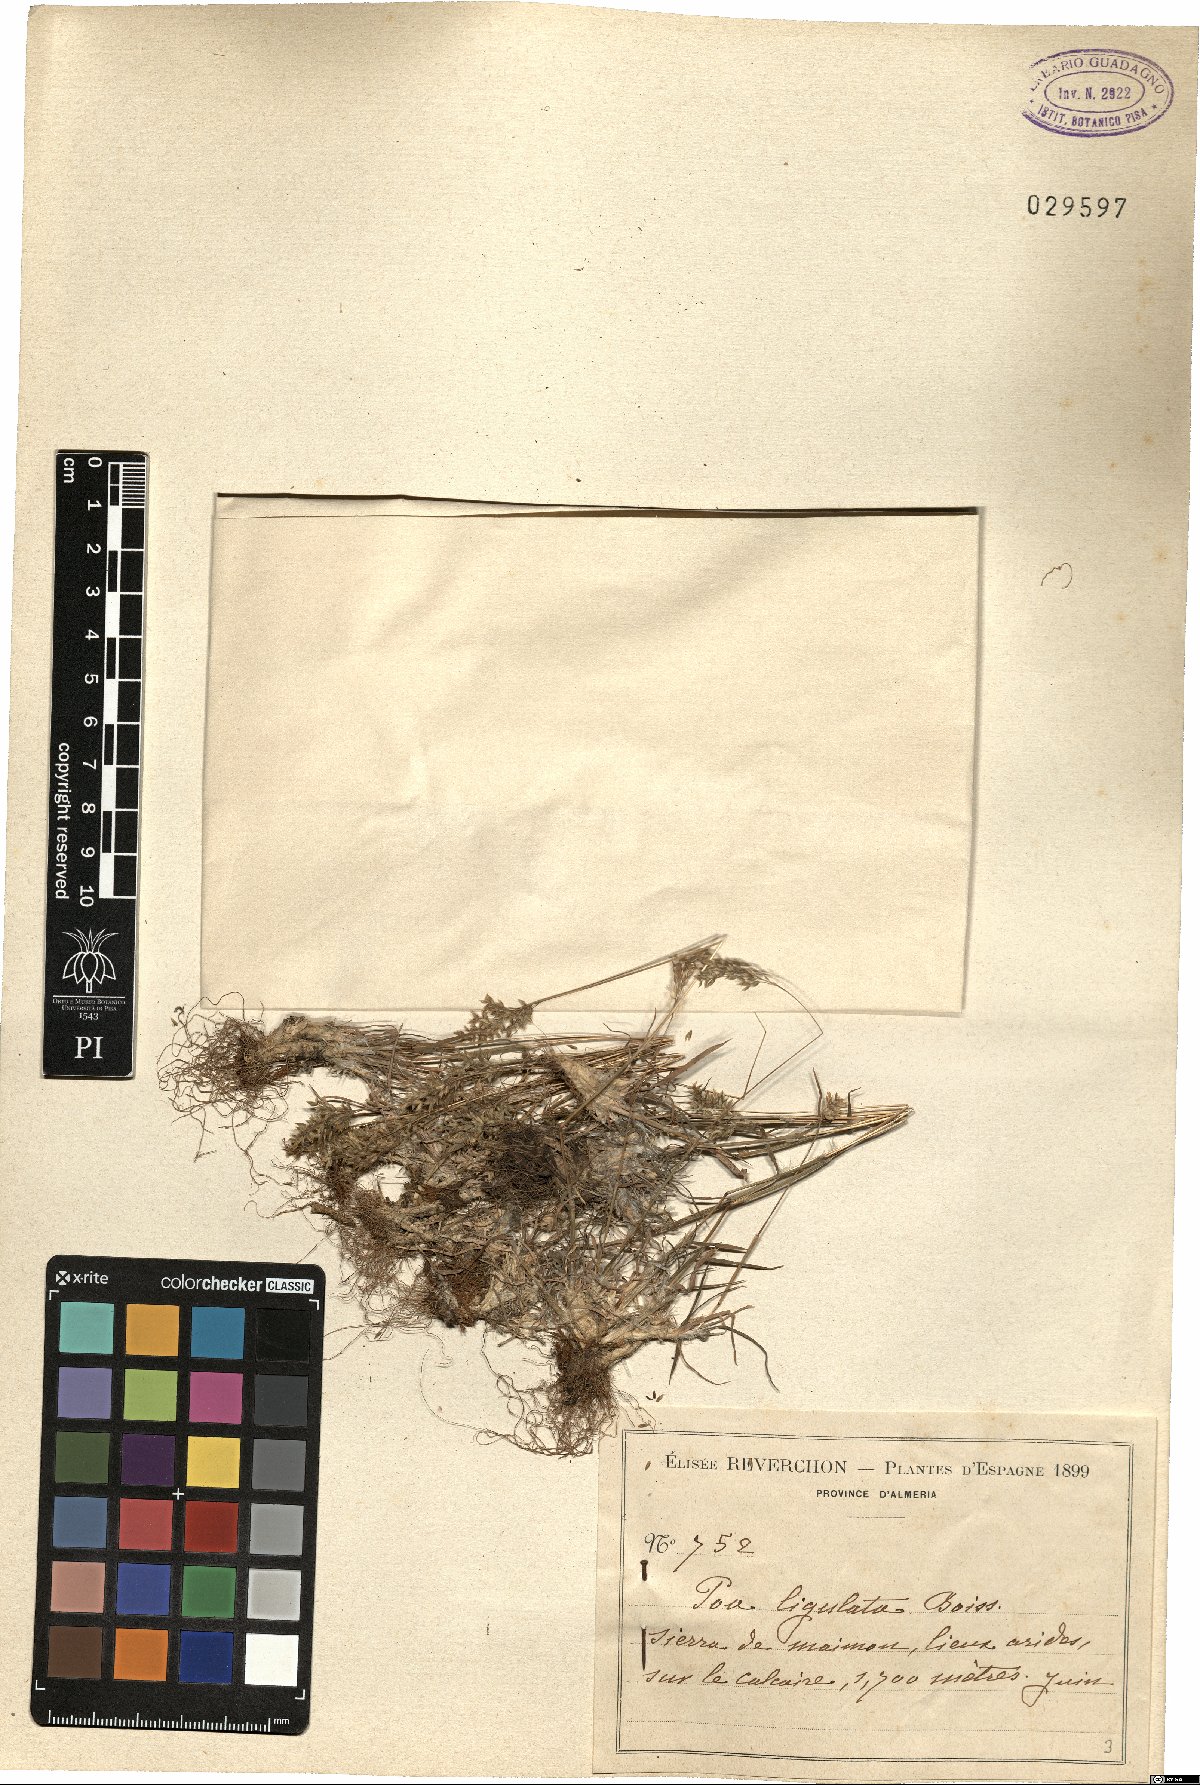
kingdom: Plantae
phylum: Tracheophyta
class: Liliopsida
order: Poales
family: Poaceae
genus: Poa
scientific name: Poa ligulata
